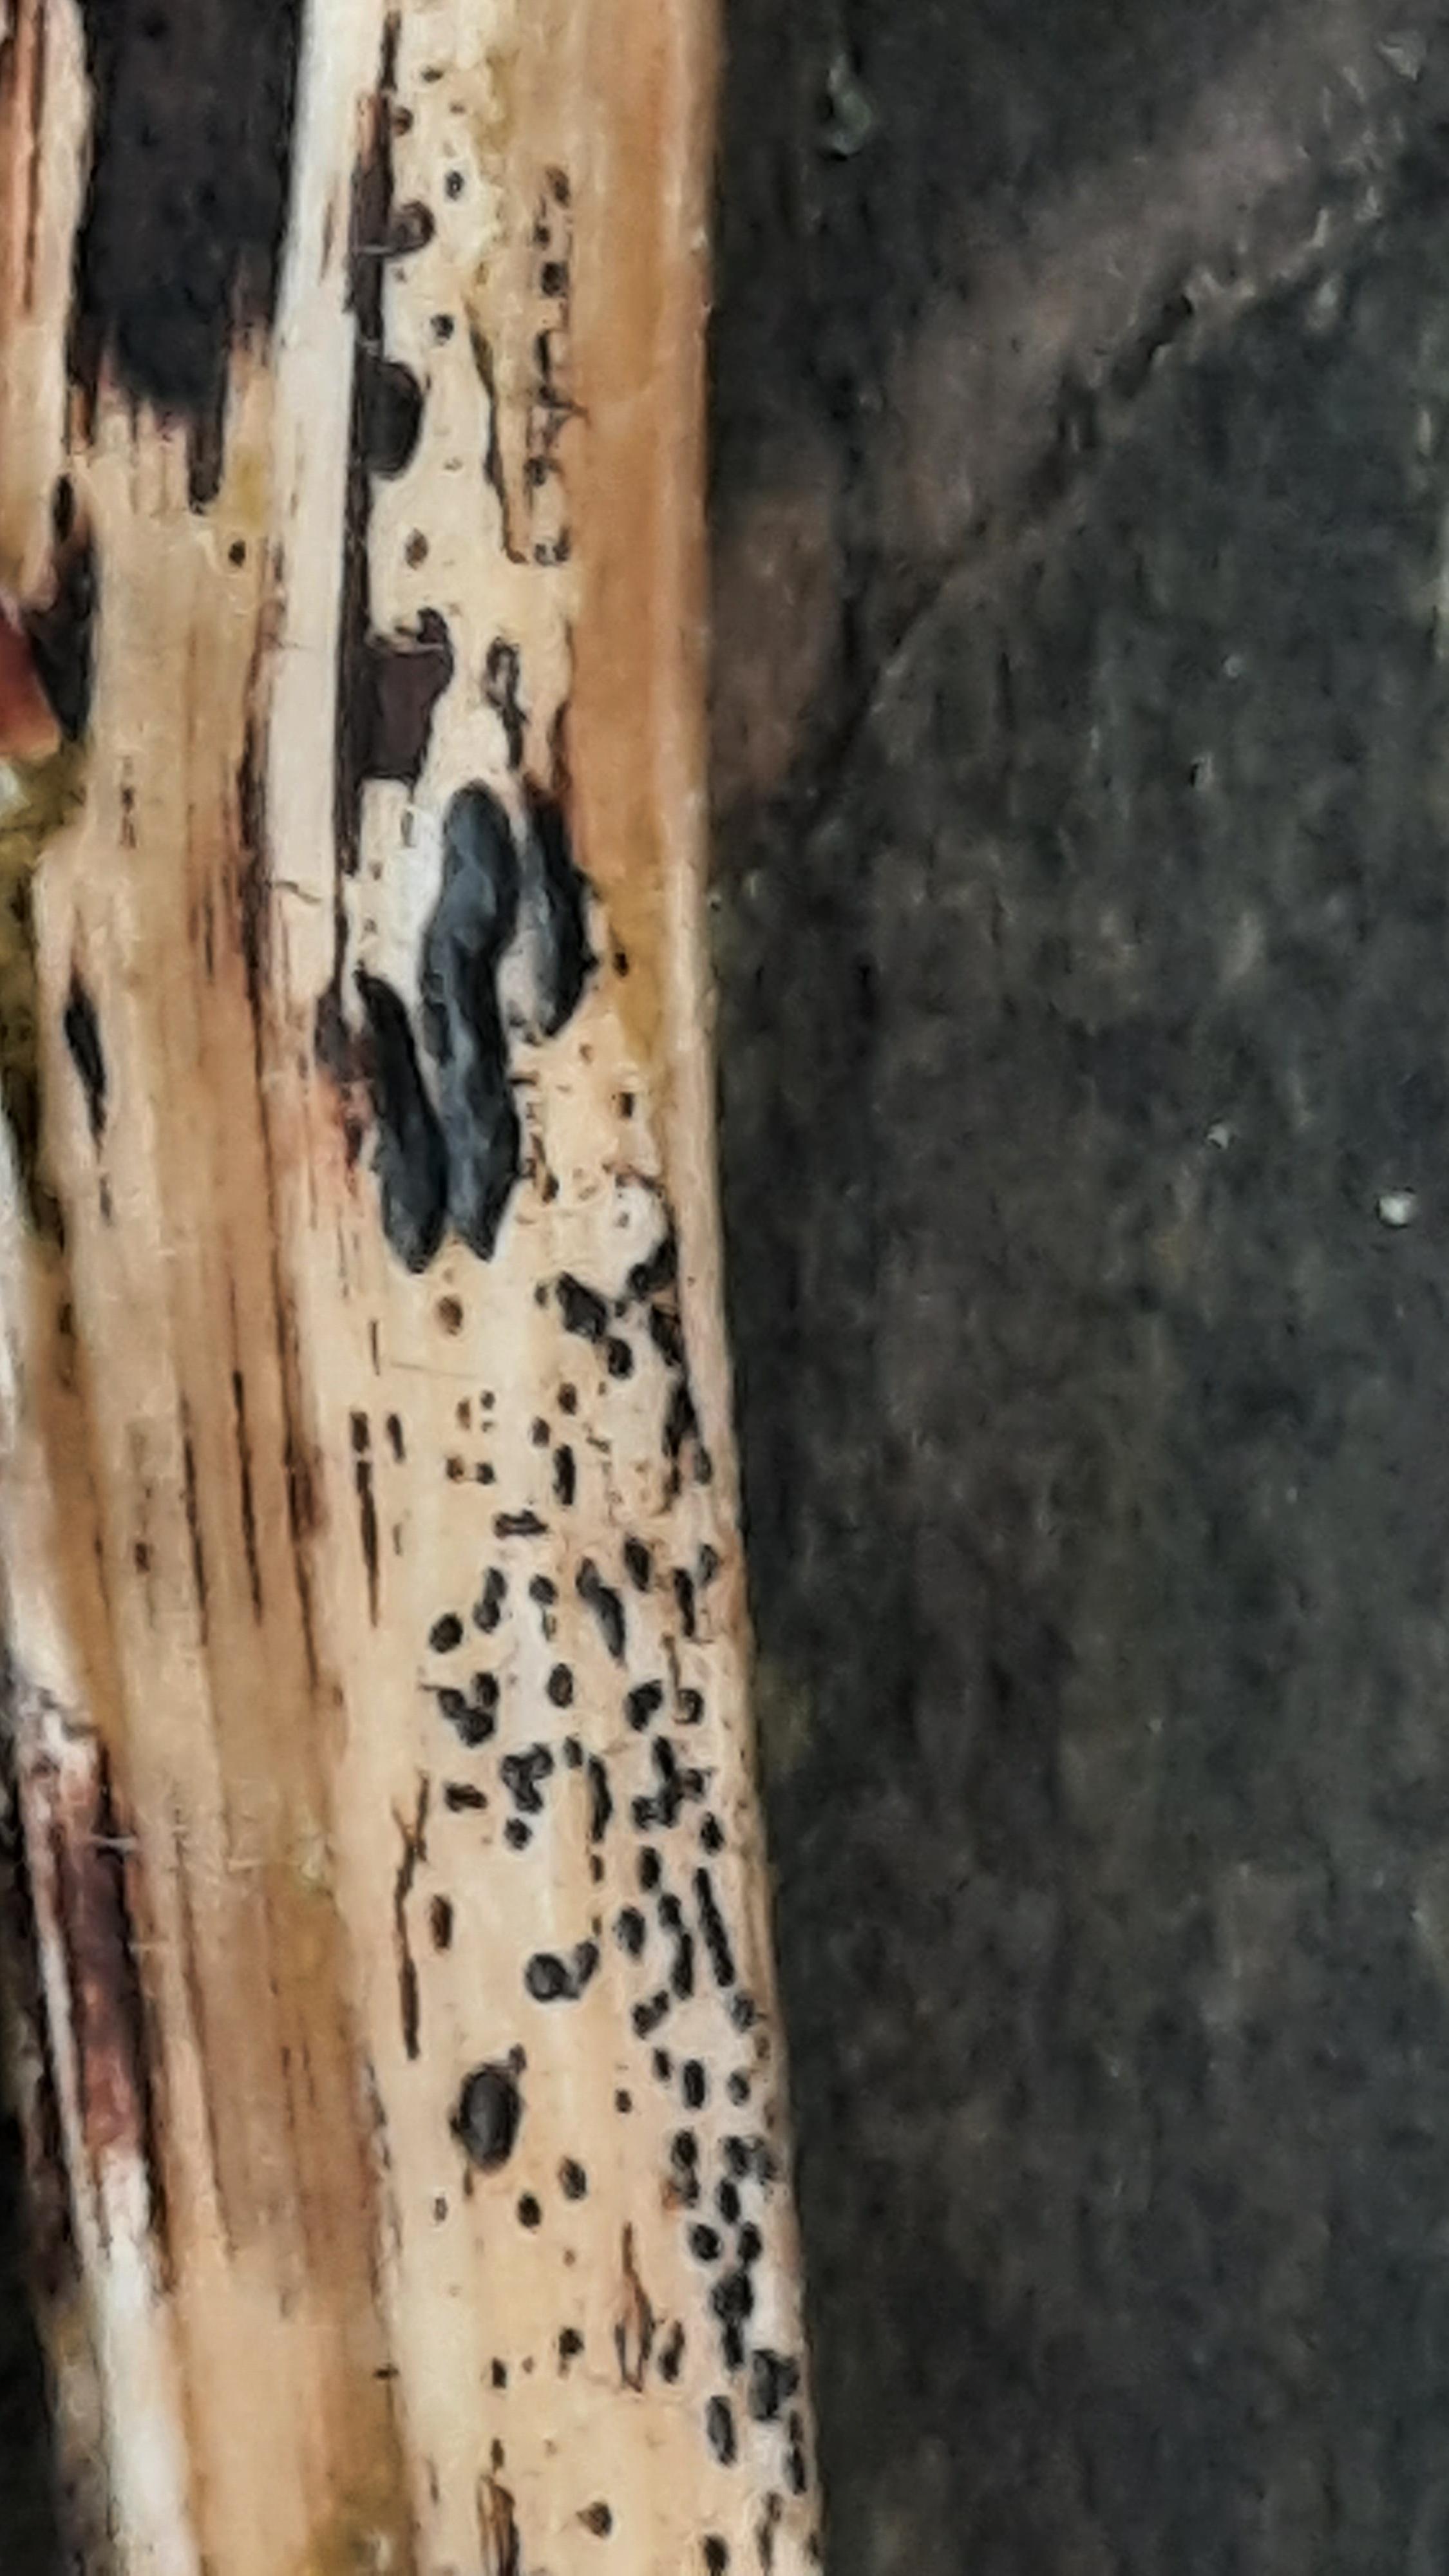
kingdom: Fungi
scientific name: Fungi
